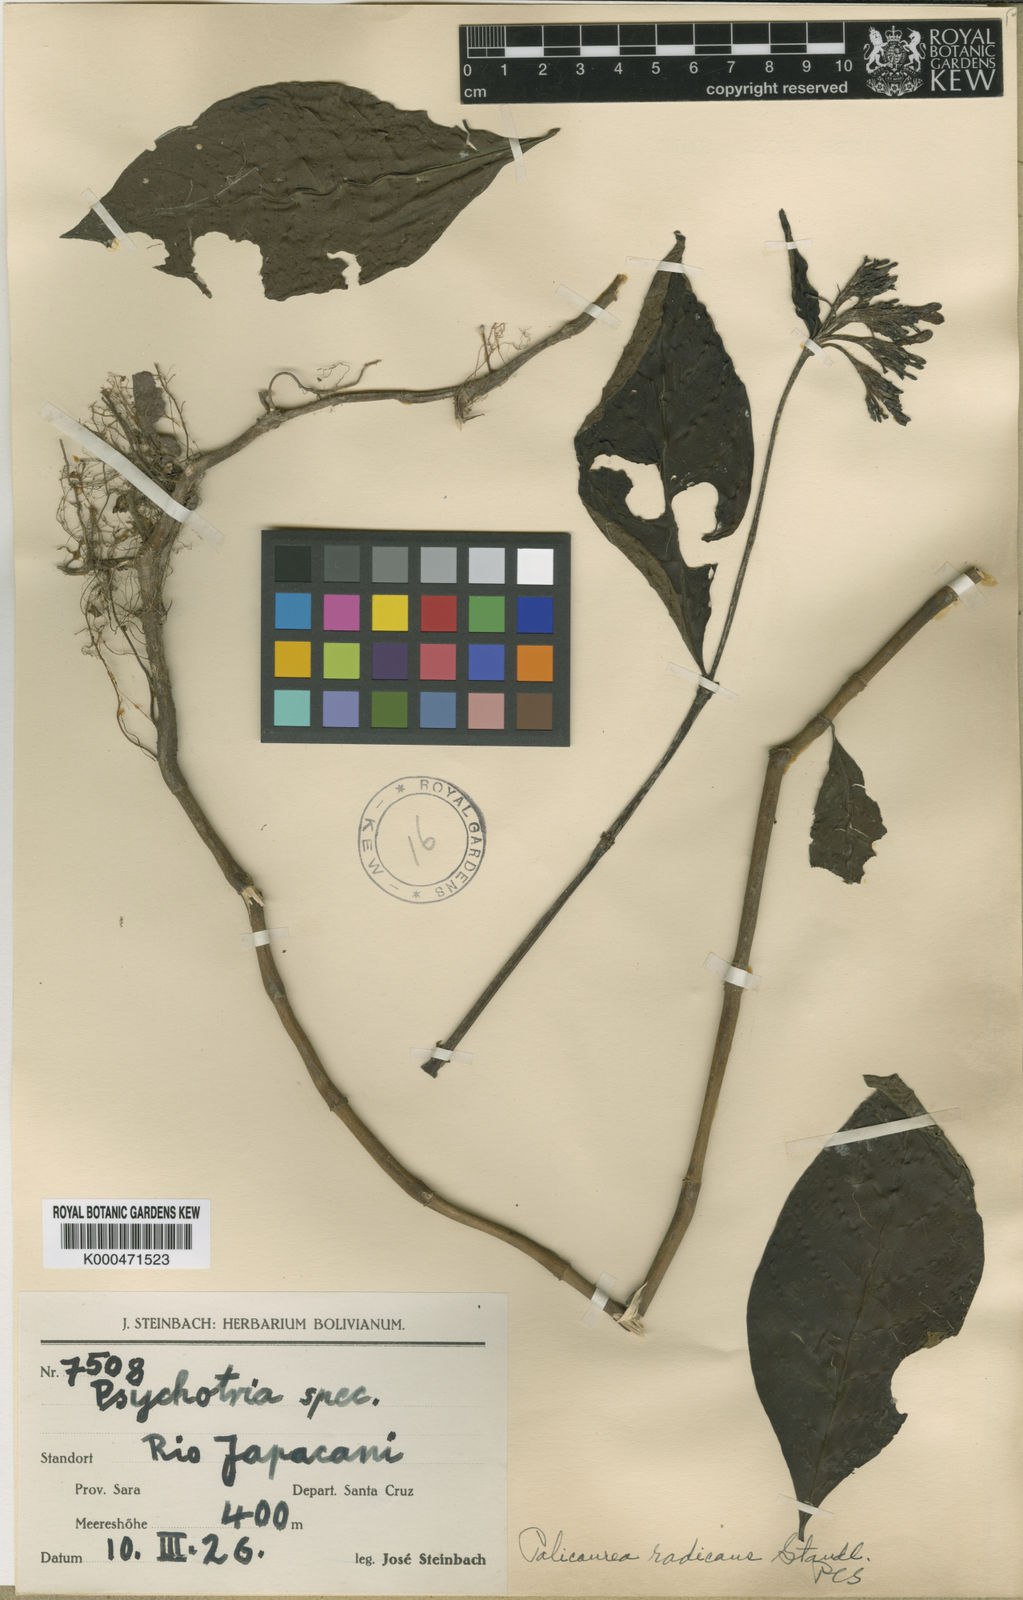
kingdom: Plantae
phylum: Tracheophyta
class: Magnoliopsida
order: Gentianales
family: Rubiaceae
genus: Palicourea
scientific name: Palicourea croceoides
